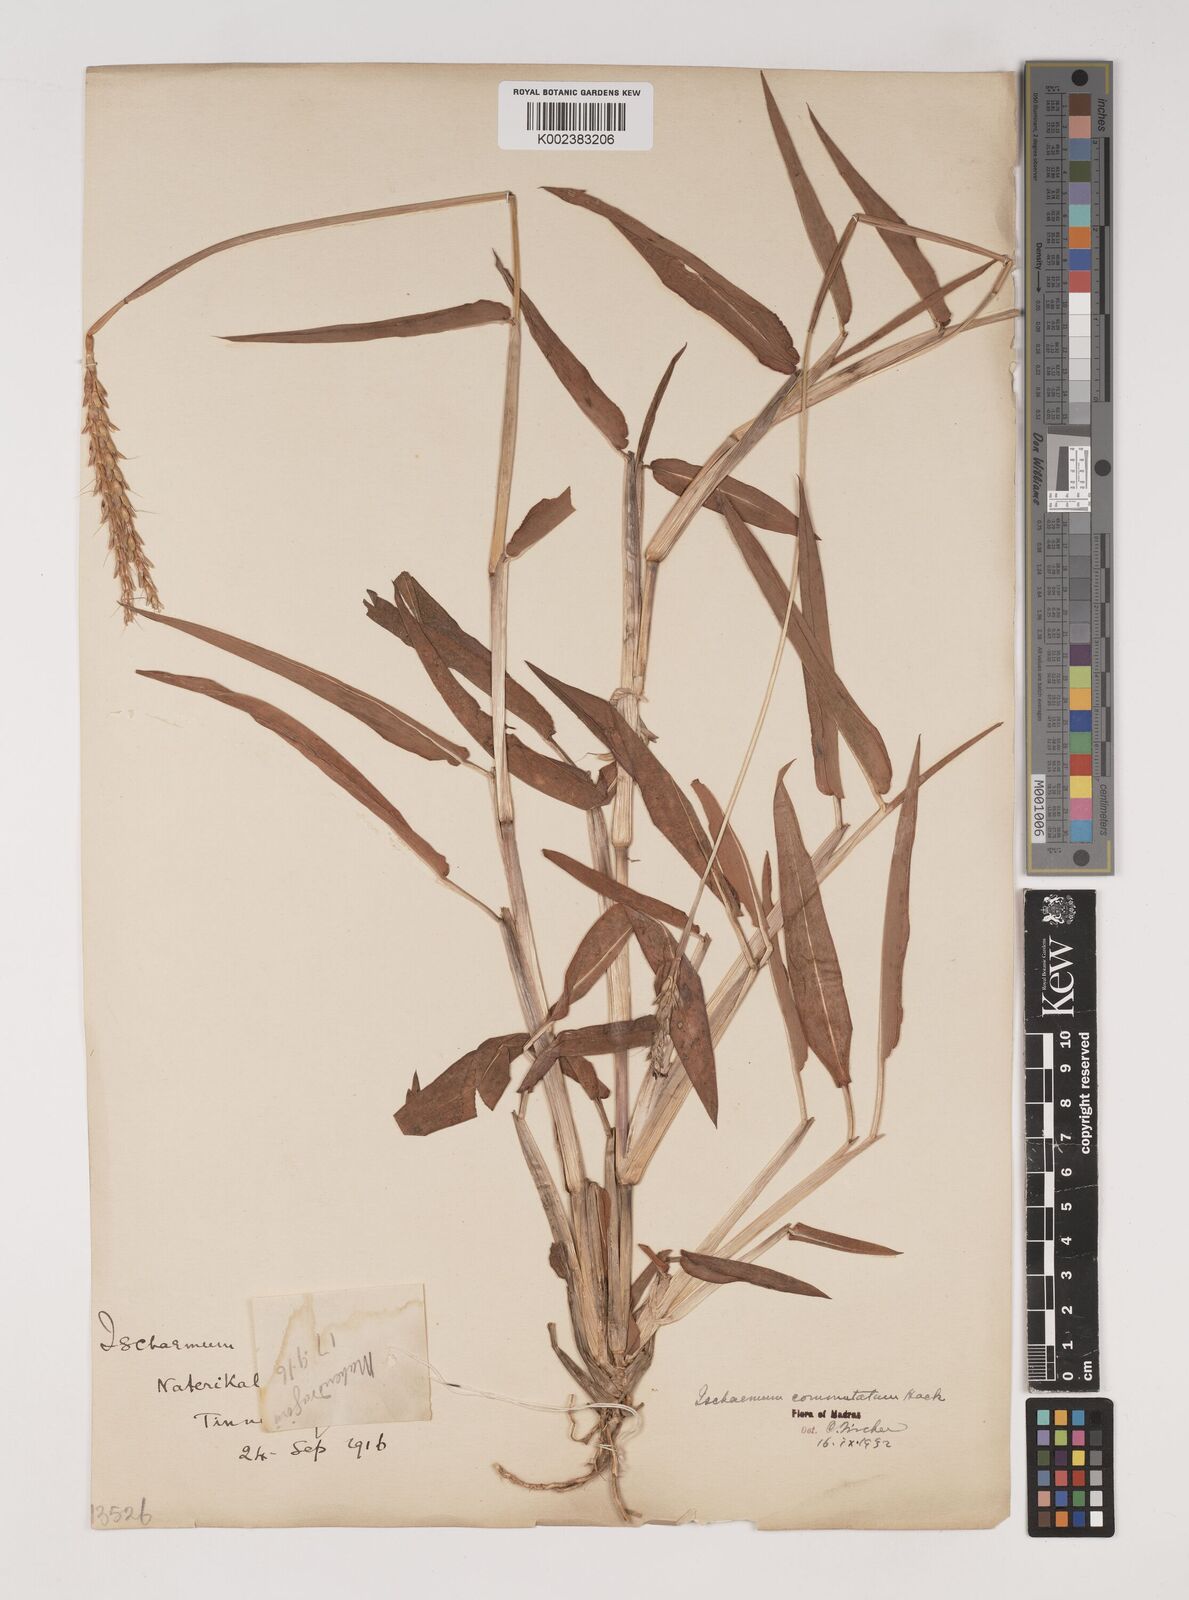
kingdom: Plantae
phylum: Tracheophyta
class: Liliopsida
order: Poales
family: Poaceae
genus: Ischaemum
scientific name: Ischaemum commutatum
